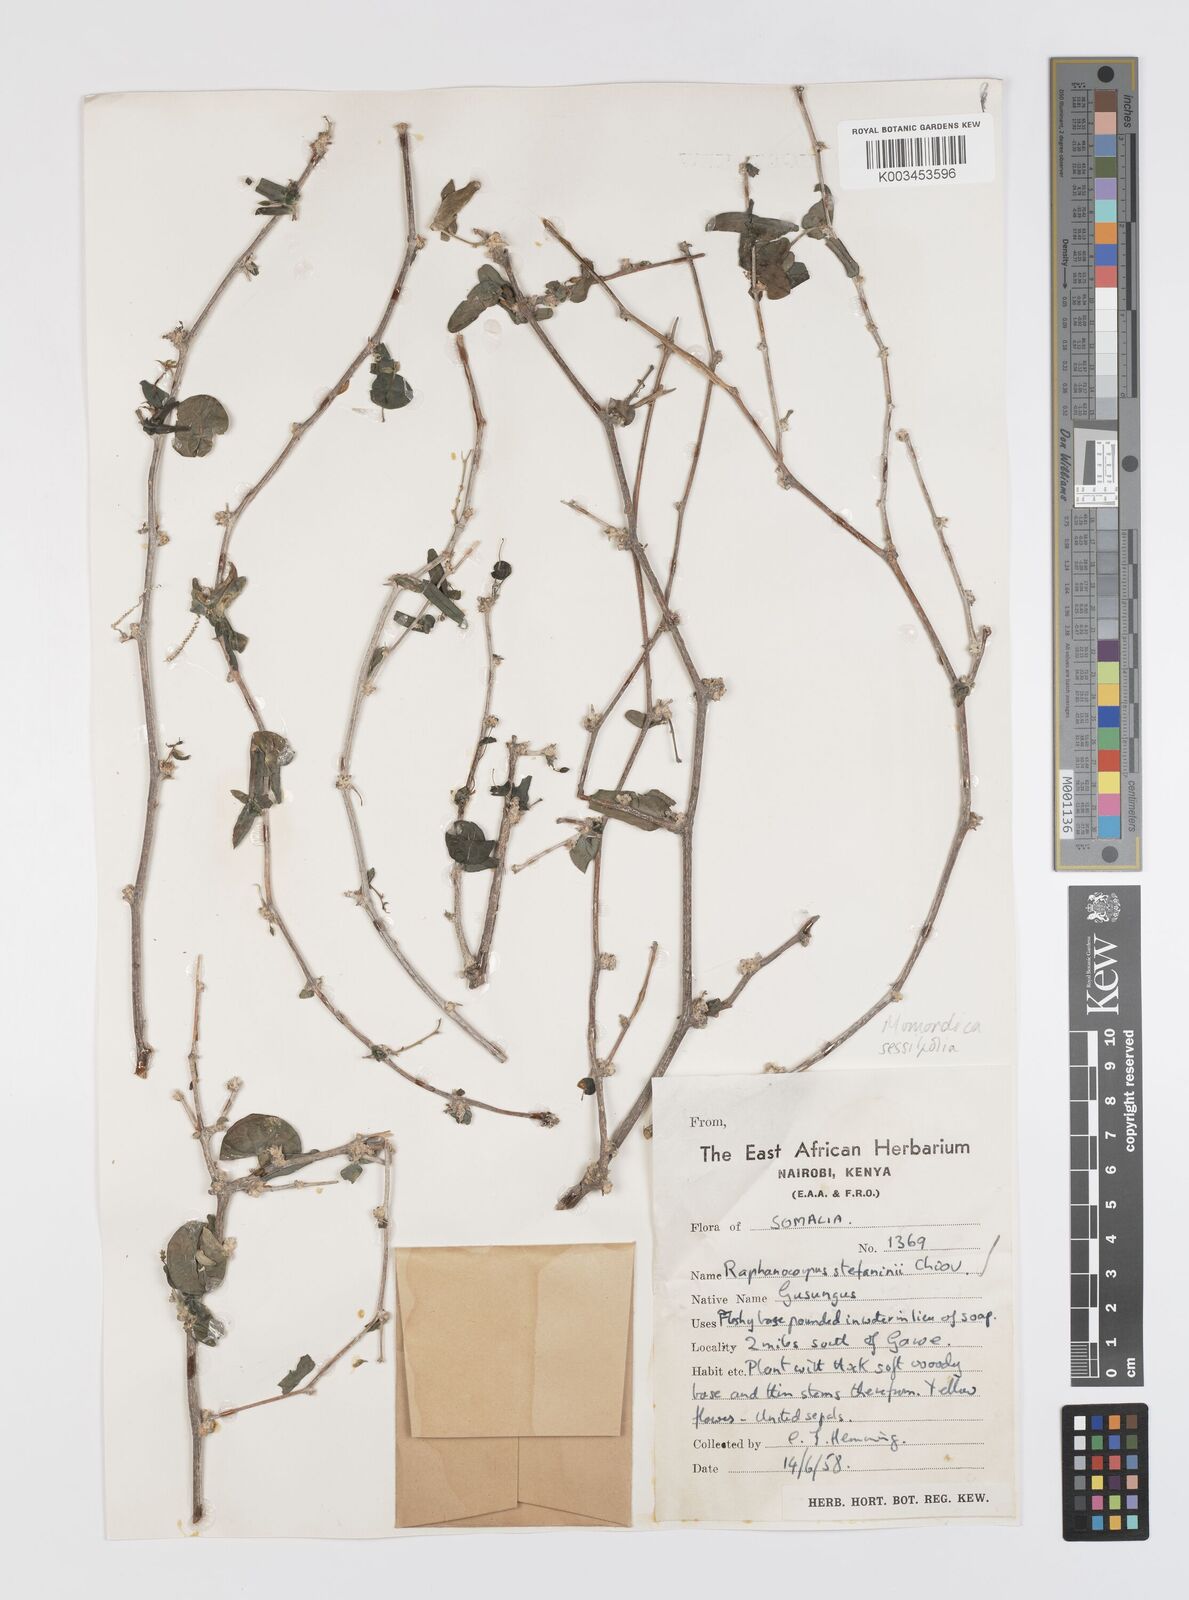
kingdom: Plantae
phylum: Tracheophyta
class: Magnoliopsida
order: Cucurbitales
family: Cucurbitaceae
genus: Momordica
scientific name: Momordica sessilifolia
